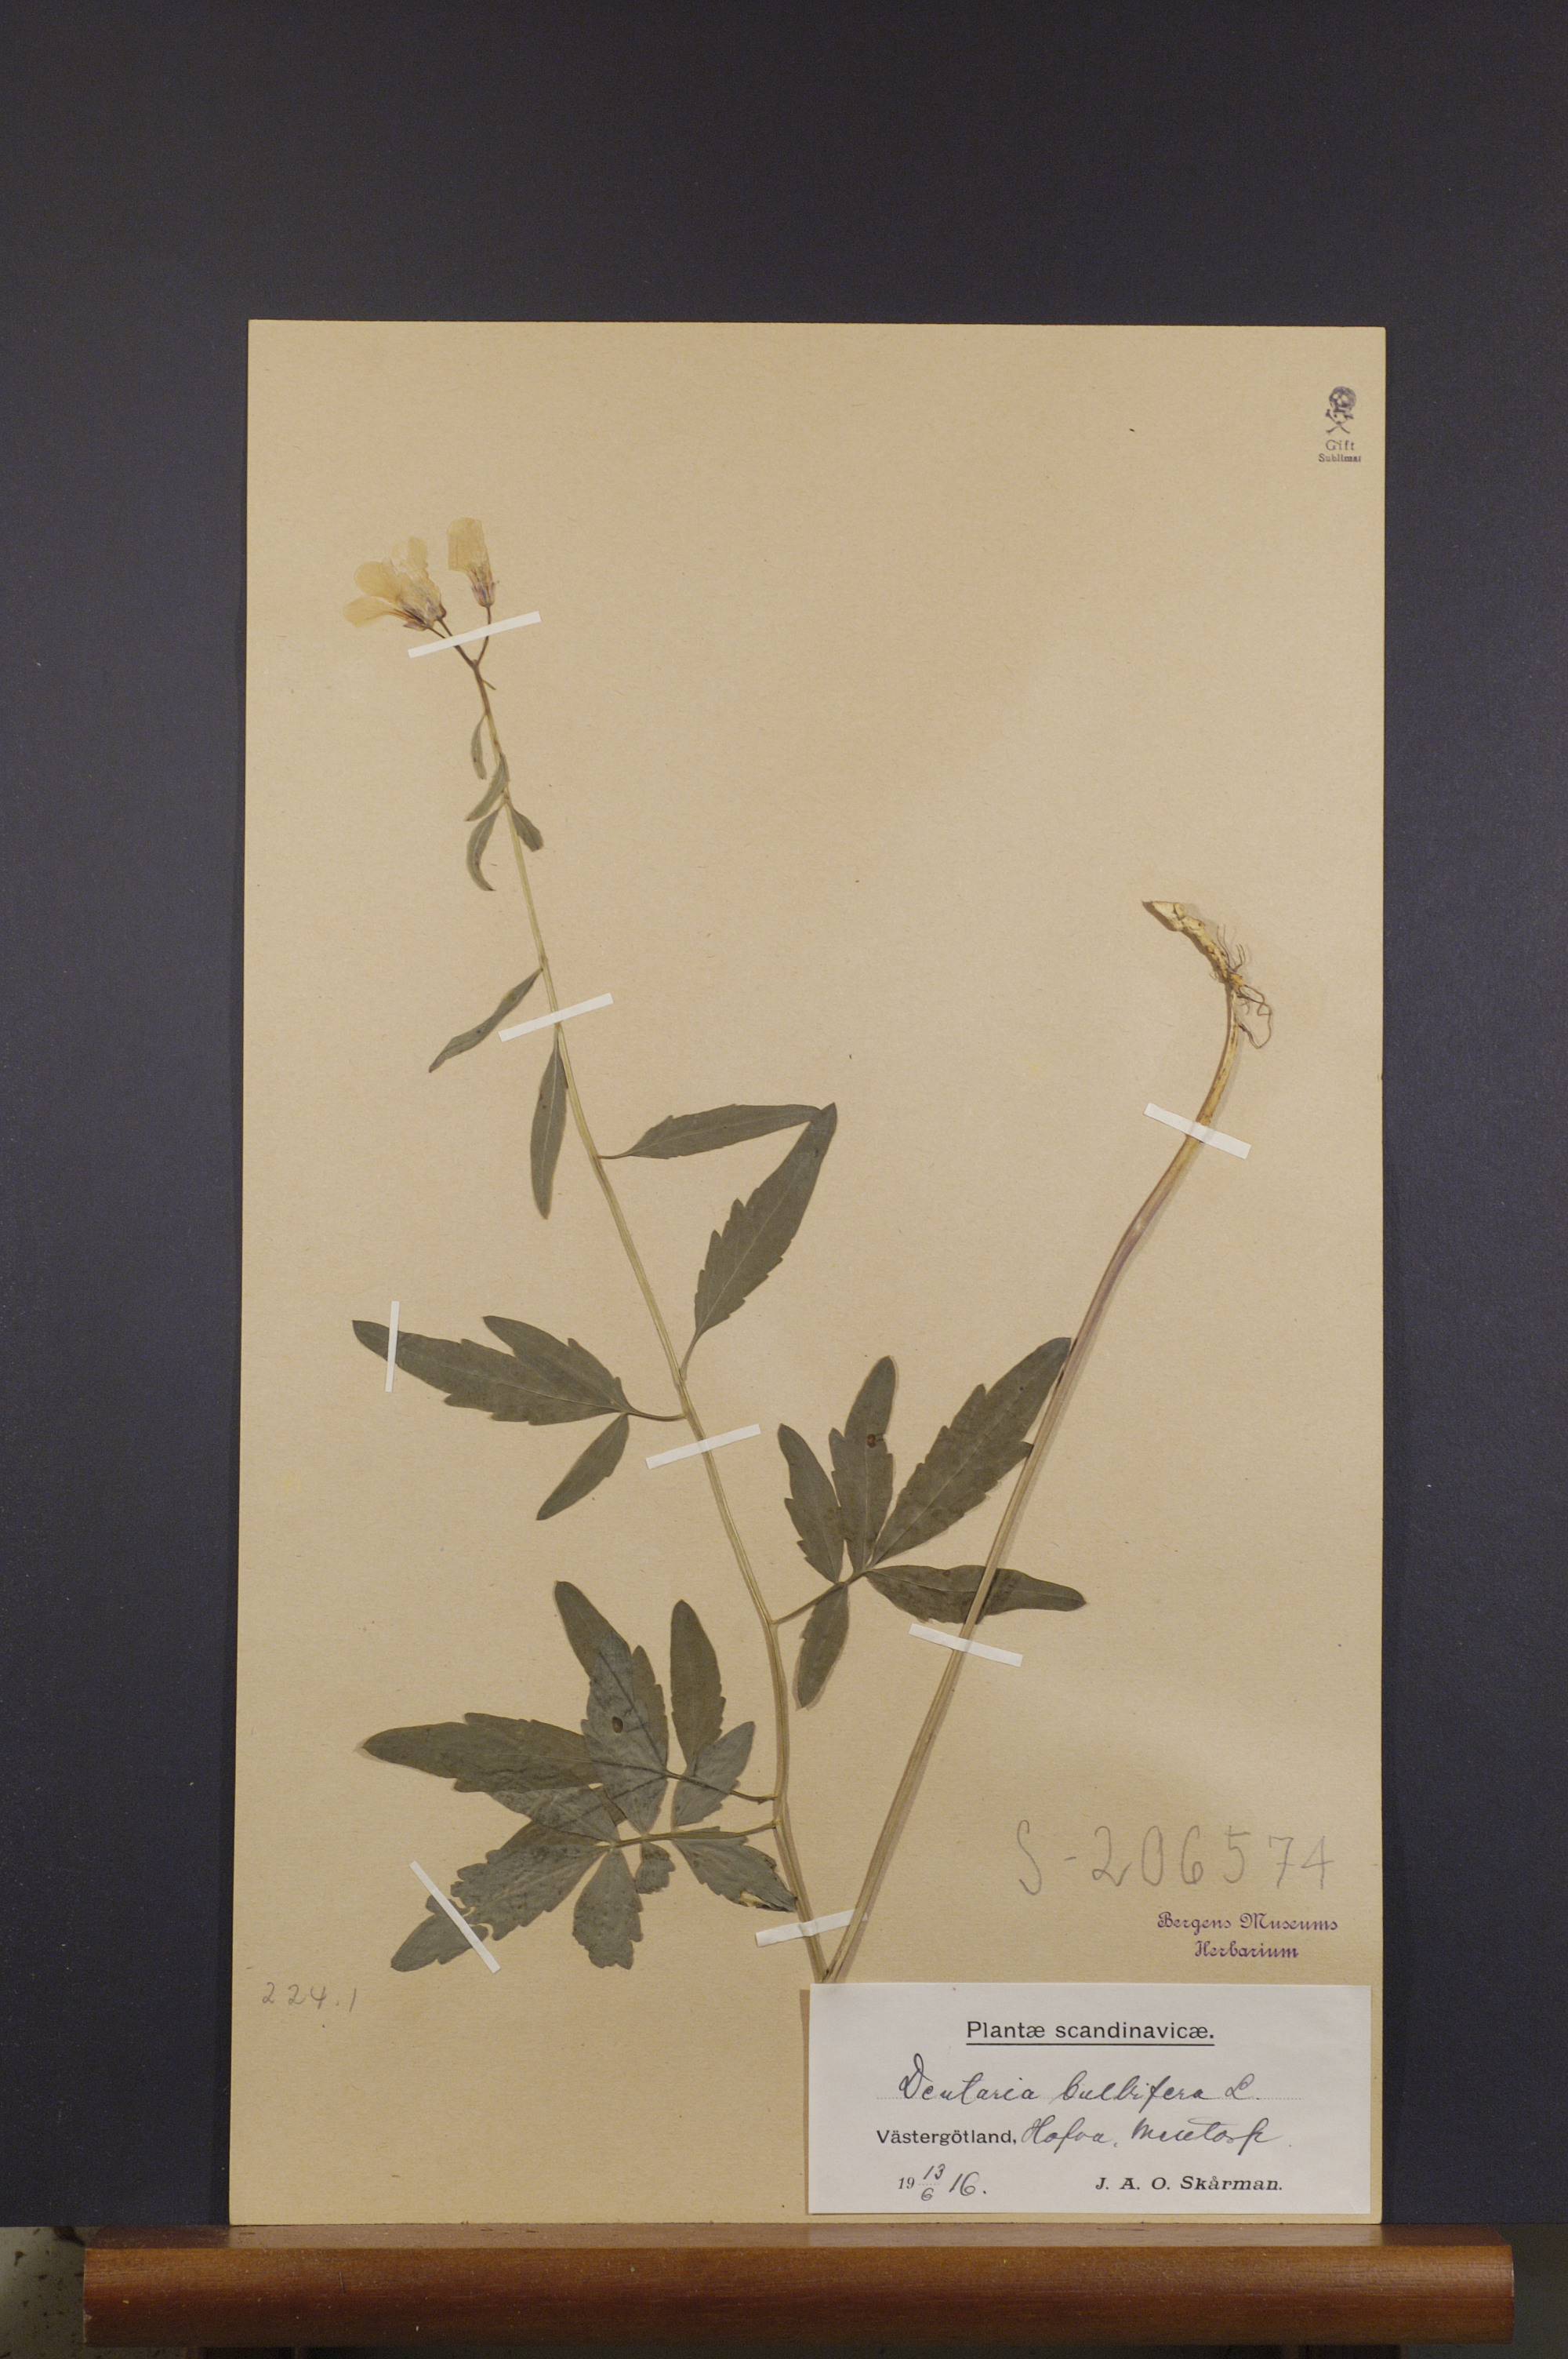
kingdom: Plantae
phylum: Tracheophyta
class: Magnoliopsida
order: Brassicales
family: Brassicaceae
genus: Cardamine
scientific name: Cardamine bulbifera
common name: Coralroot bittercress
